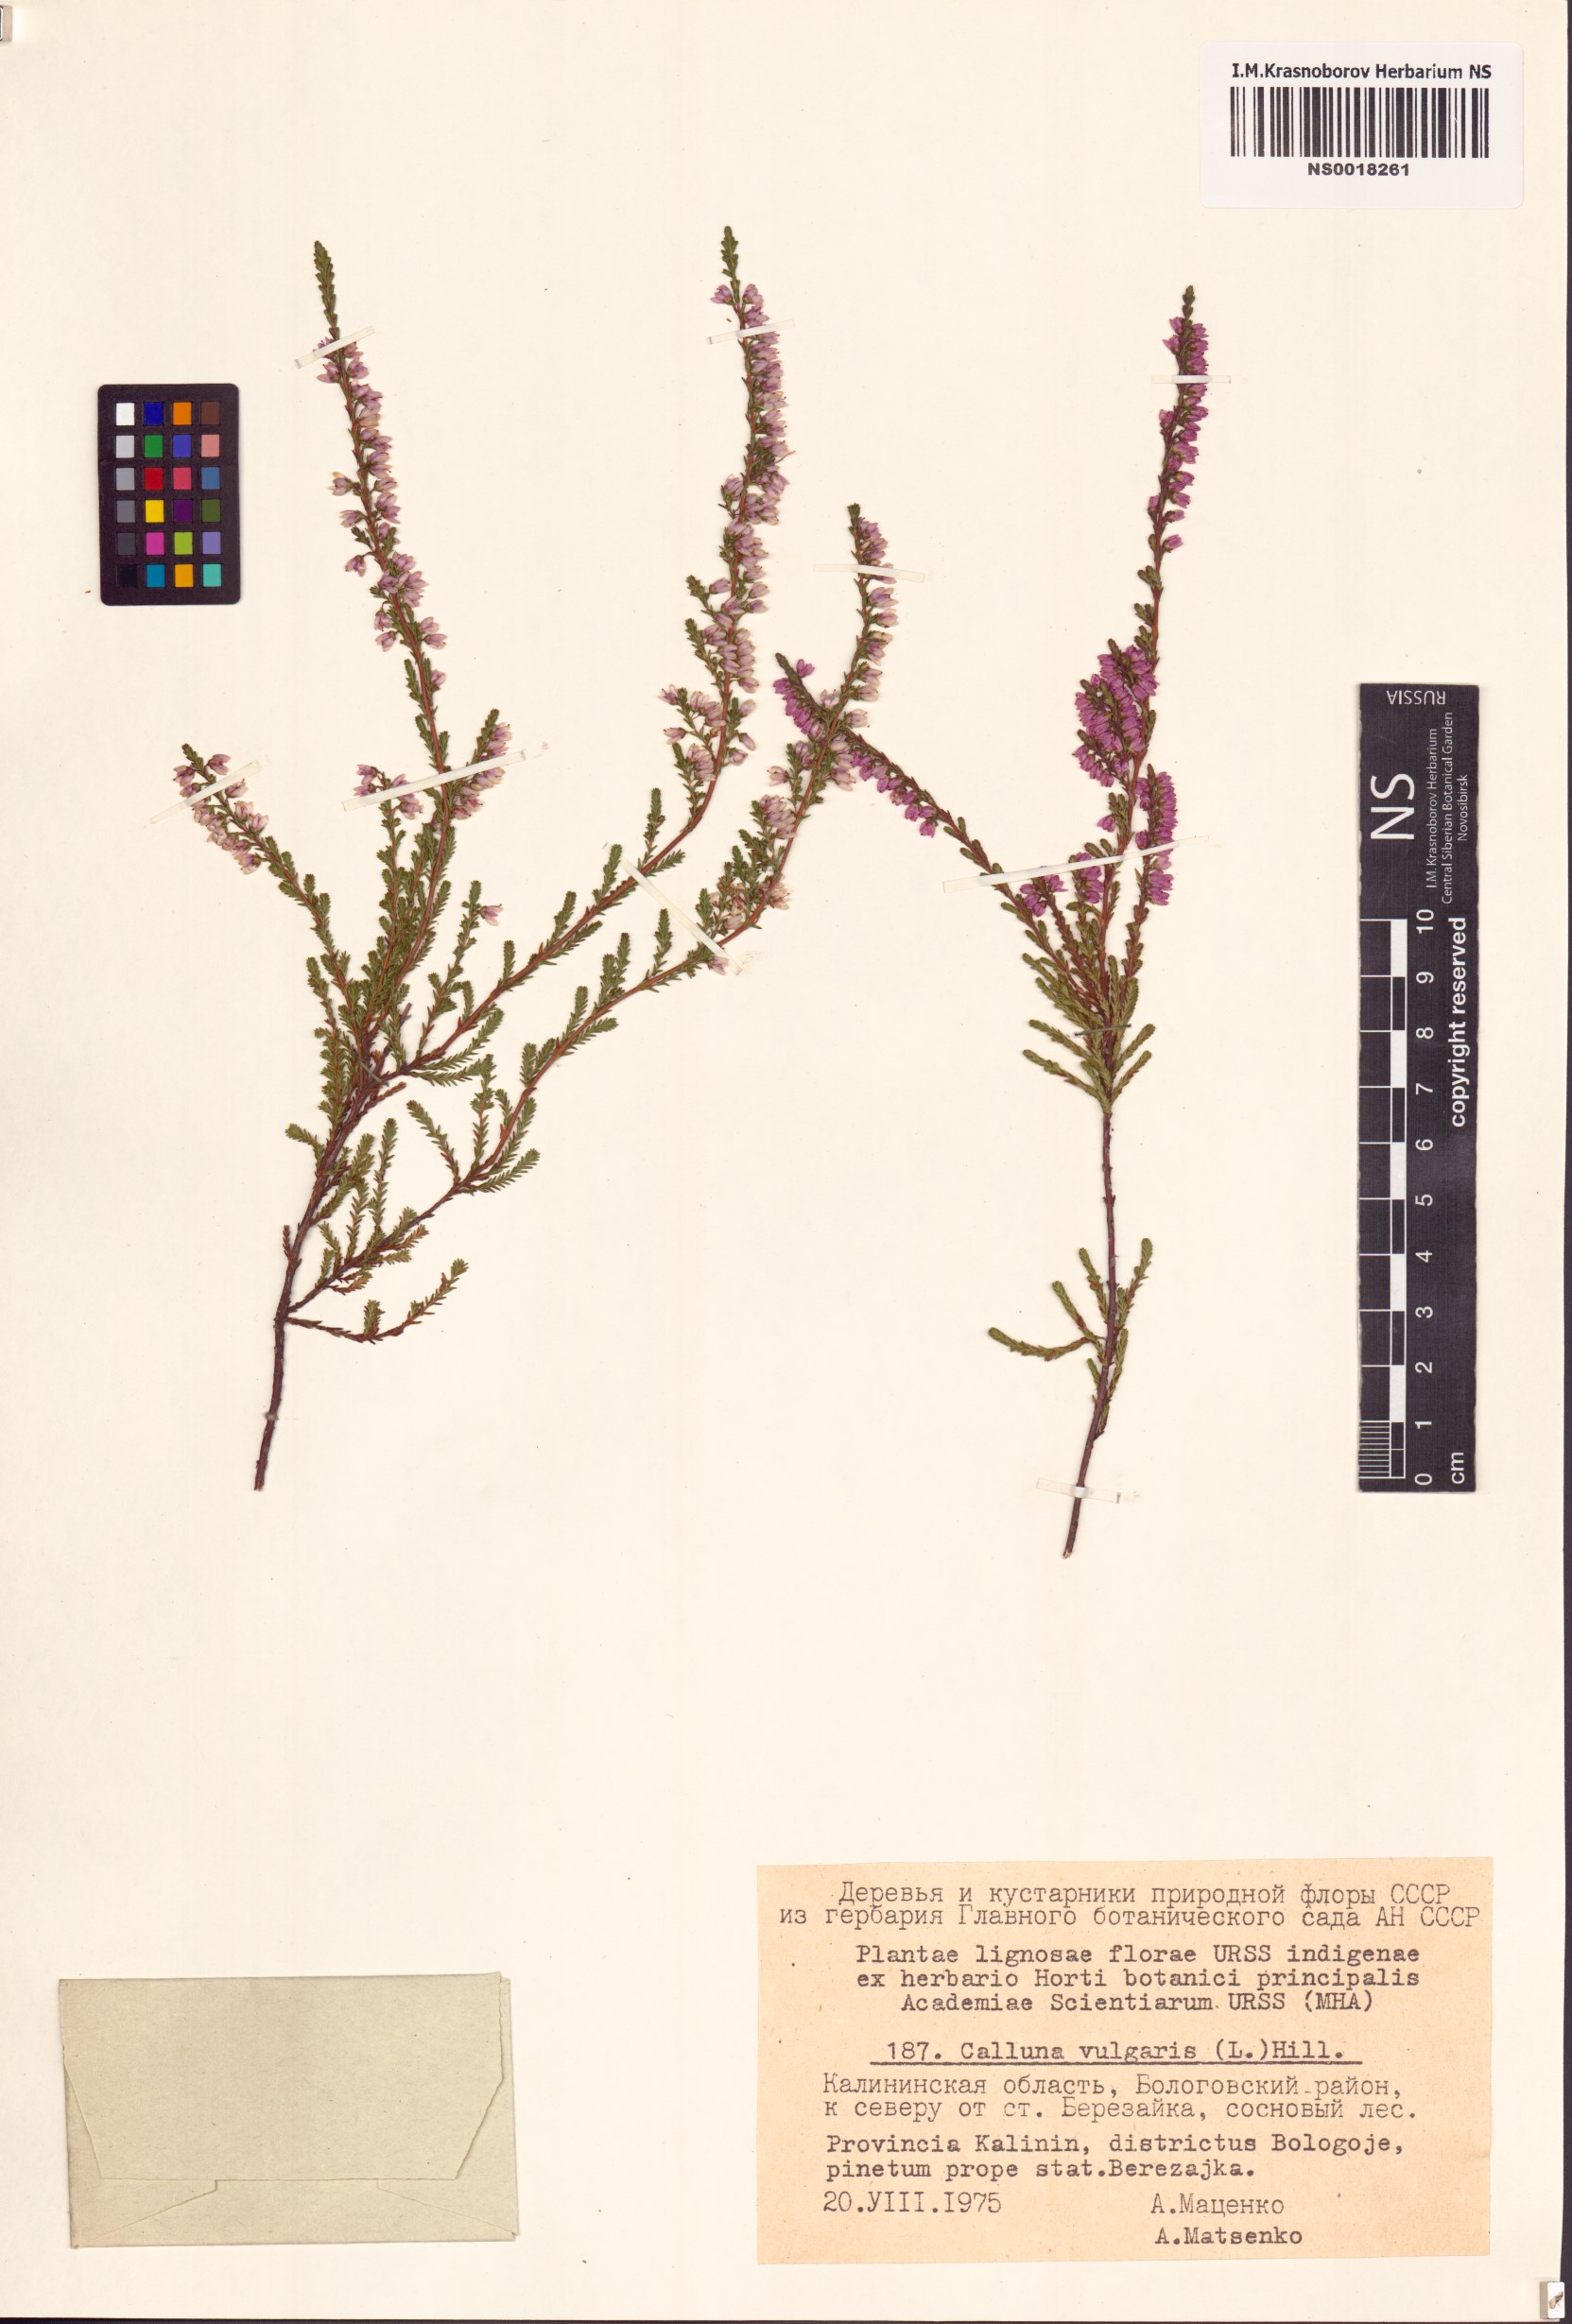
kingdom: Plantae
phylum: Tracheophyta
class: Magnoliopsida
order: Ericales
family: Ericaceae
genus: Calluna
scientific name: Calluna vulgaris
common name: Heather
